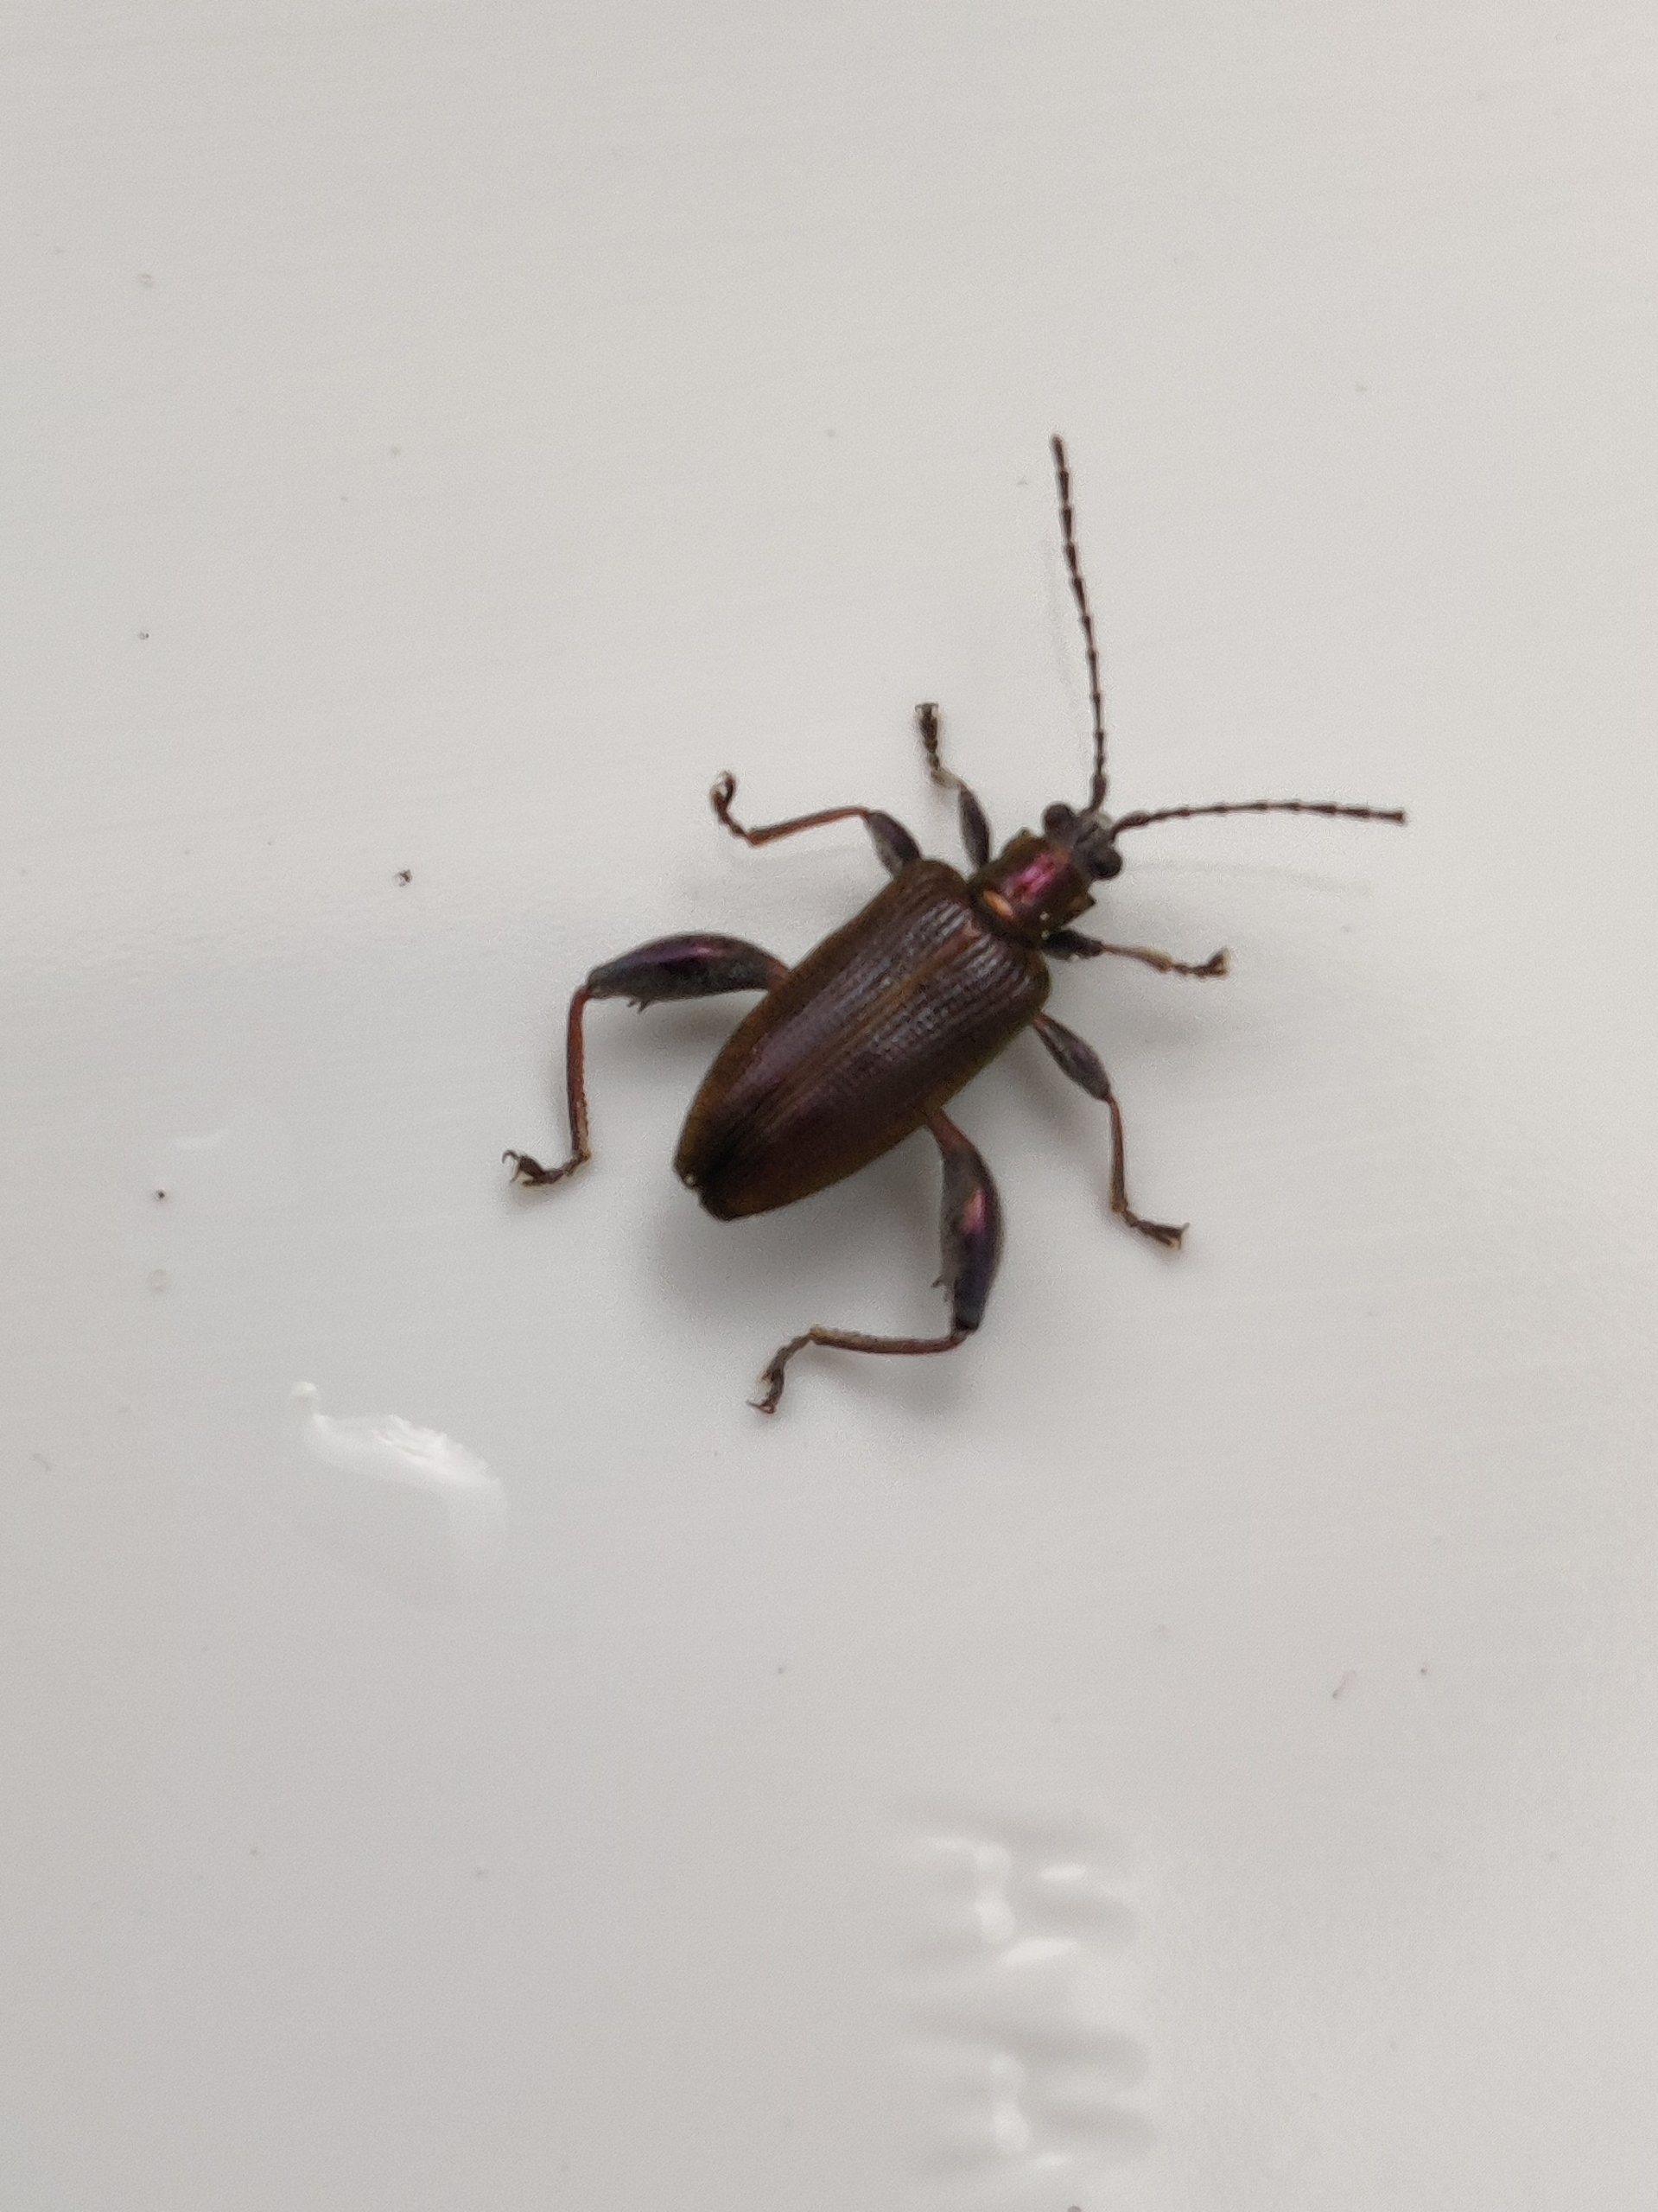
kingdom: Animalia
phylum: Arthropoda
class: Insecta
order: Coleoptera
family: Chrysomelidae
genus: Donacia
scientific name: Donacia versicolorea
